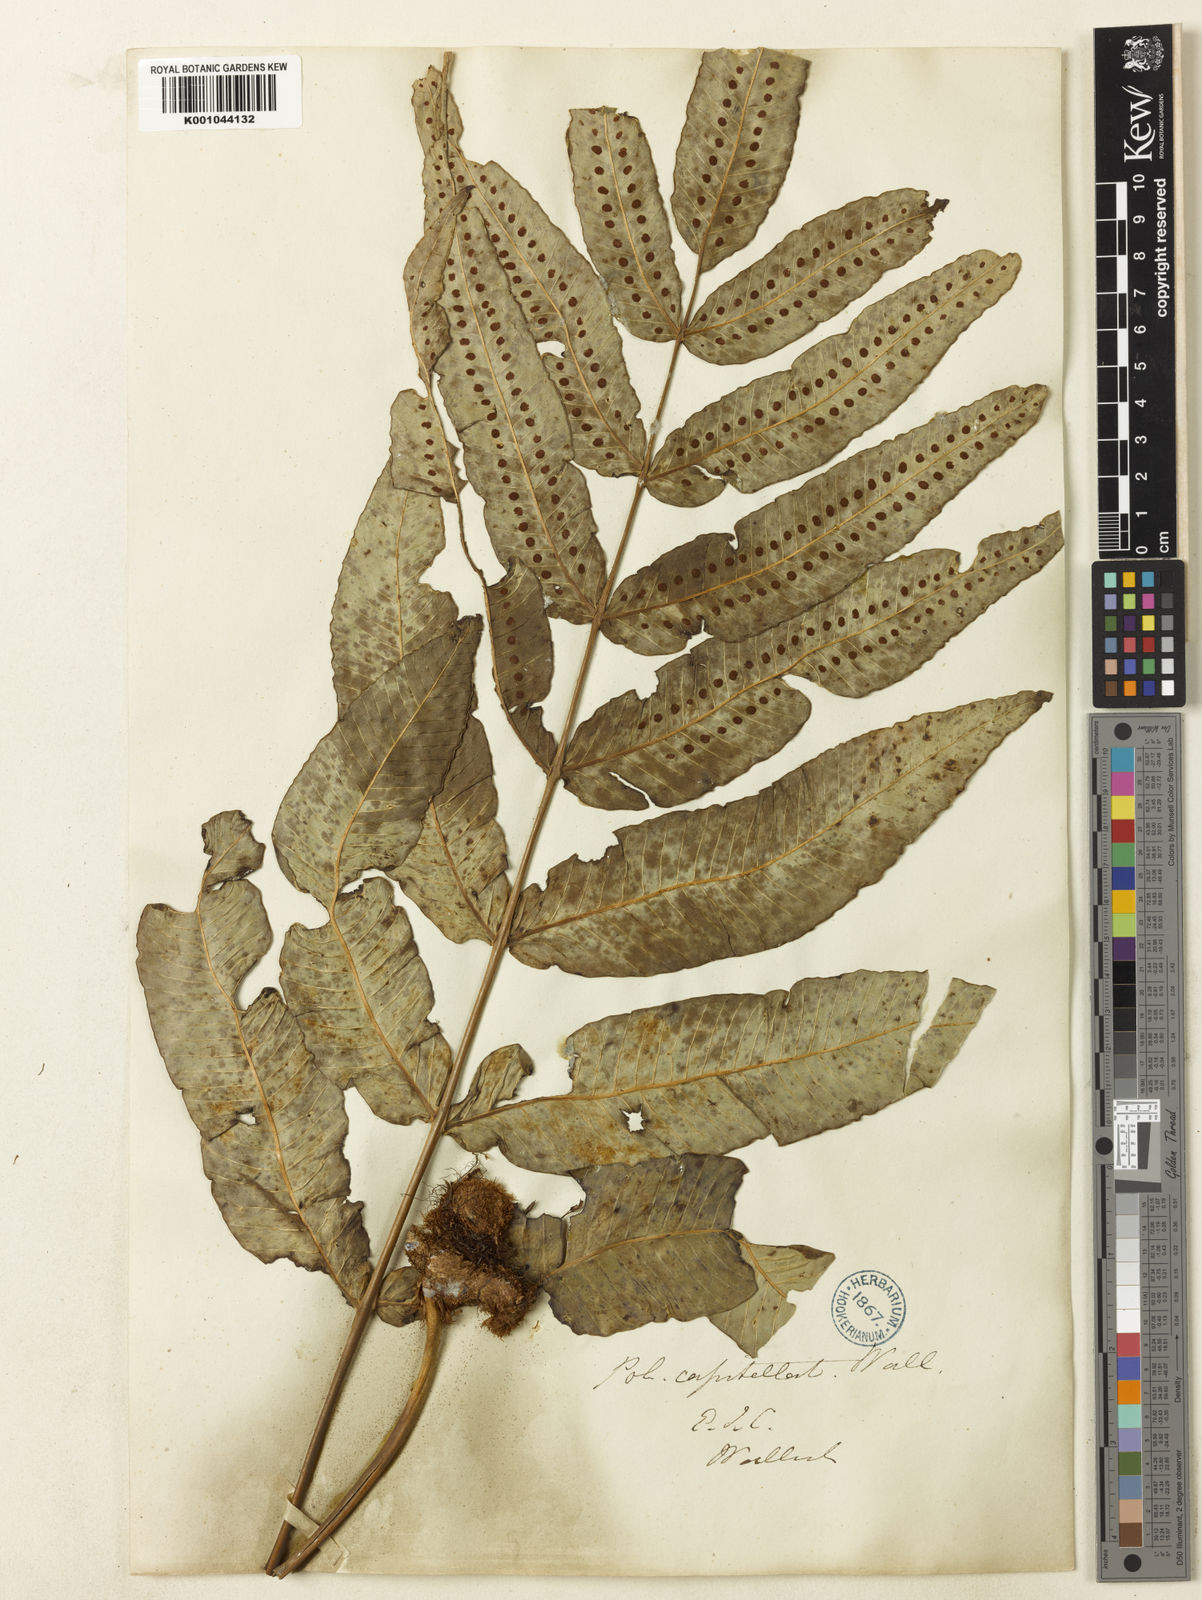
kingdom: Plantae
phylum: Tracheophyta
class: Polypodiopsida
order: Polypodiales
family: Polypodiaceae
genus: Selliguea
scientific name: Selliguea capitellata
